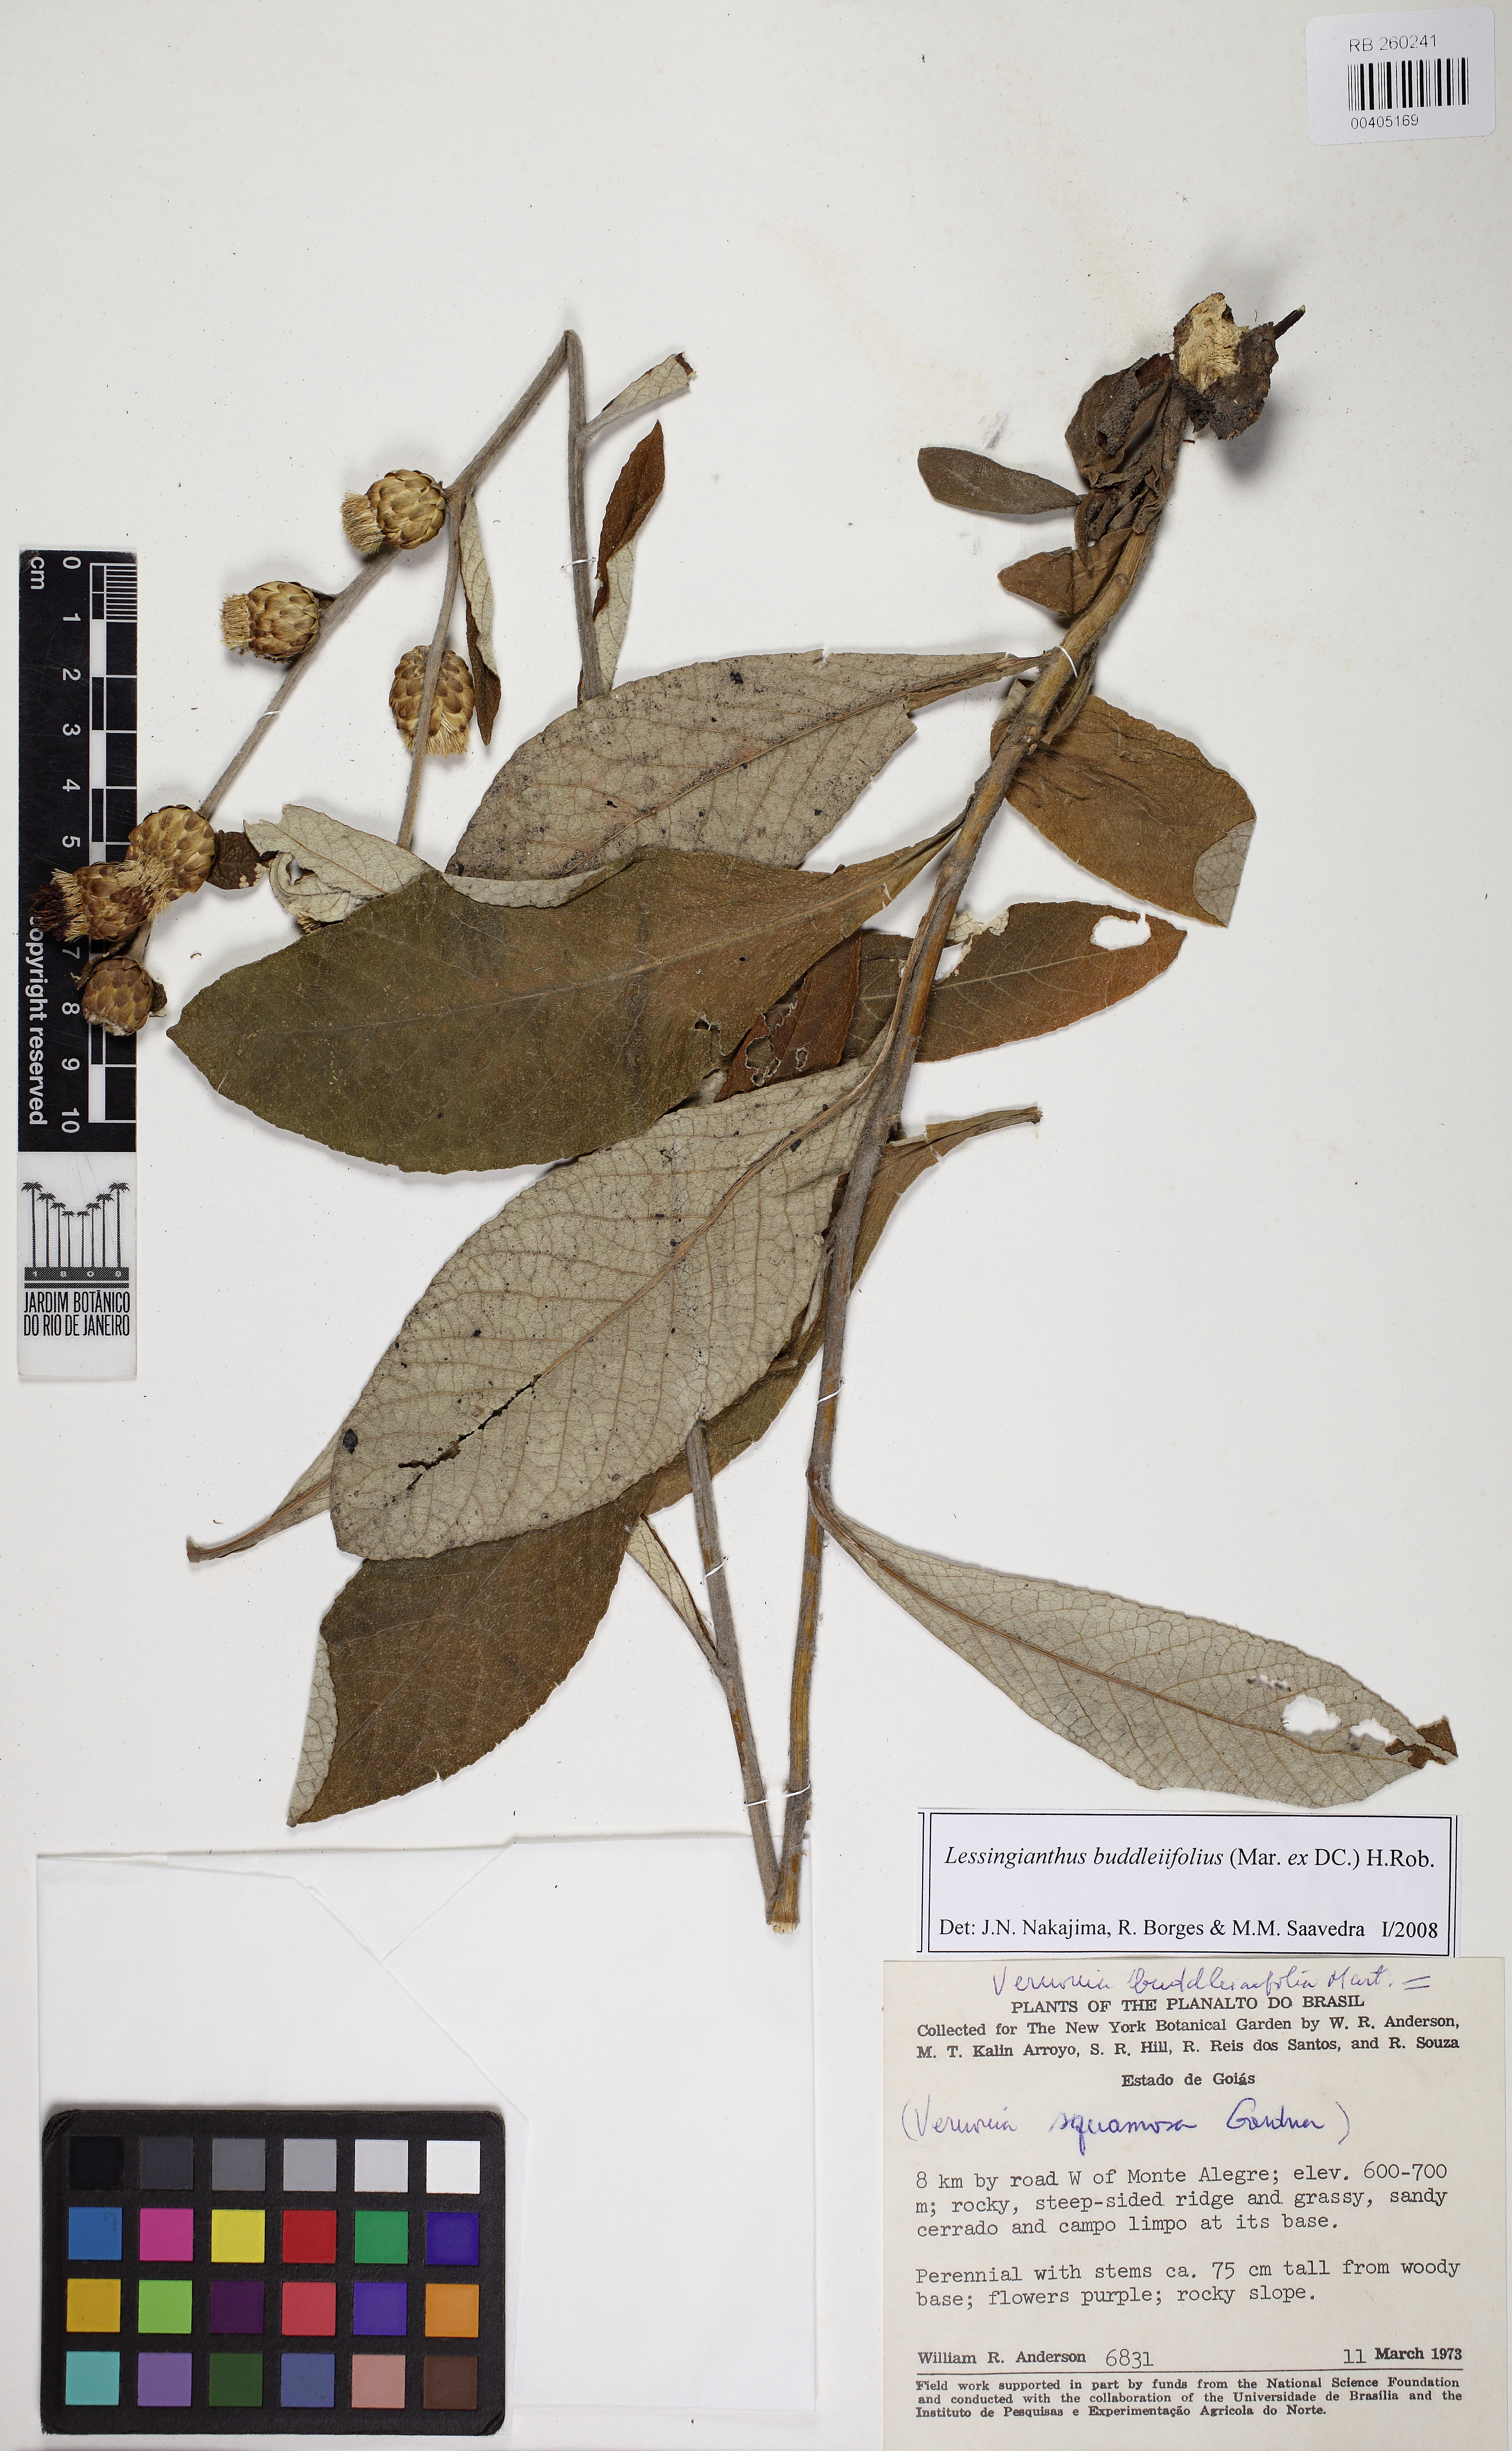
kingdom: Plantae
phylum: Tracheophyta
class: Magnoliopsida
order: Asterales
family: Asteraceae
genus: Lessingianthus
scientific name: Lessingianthus buddlejifolius
